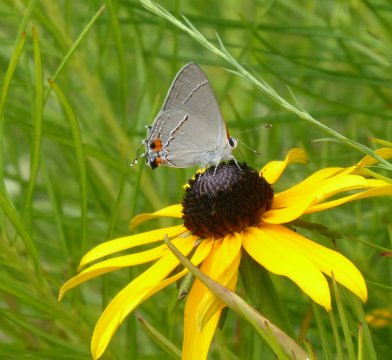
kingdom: Animalia
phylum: Arthropoda
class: Insecta
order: Lepidoptera
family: Lycaenidae
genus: Strymon
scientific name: Strymon melinus
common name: Gray Hairstreak
